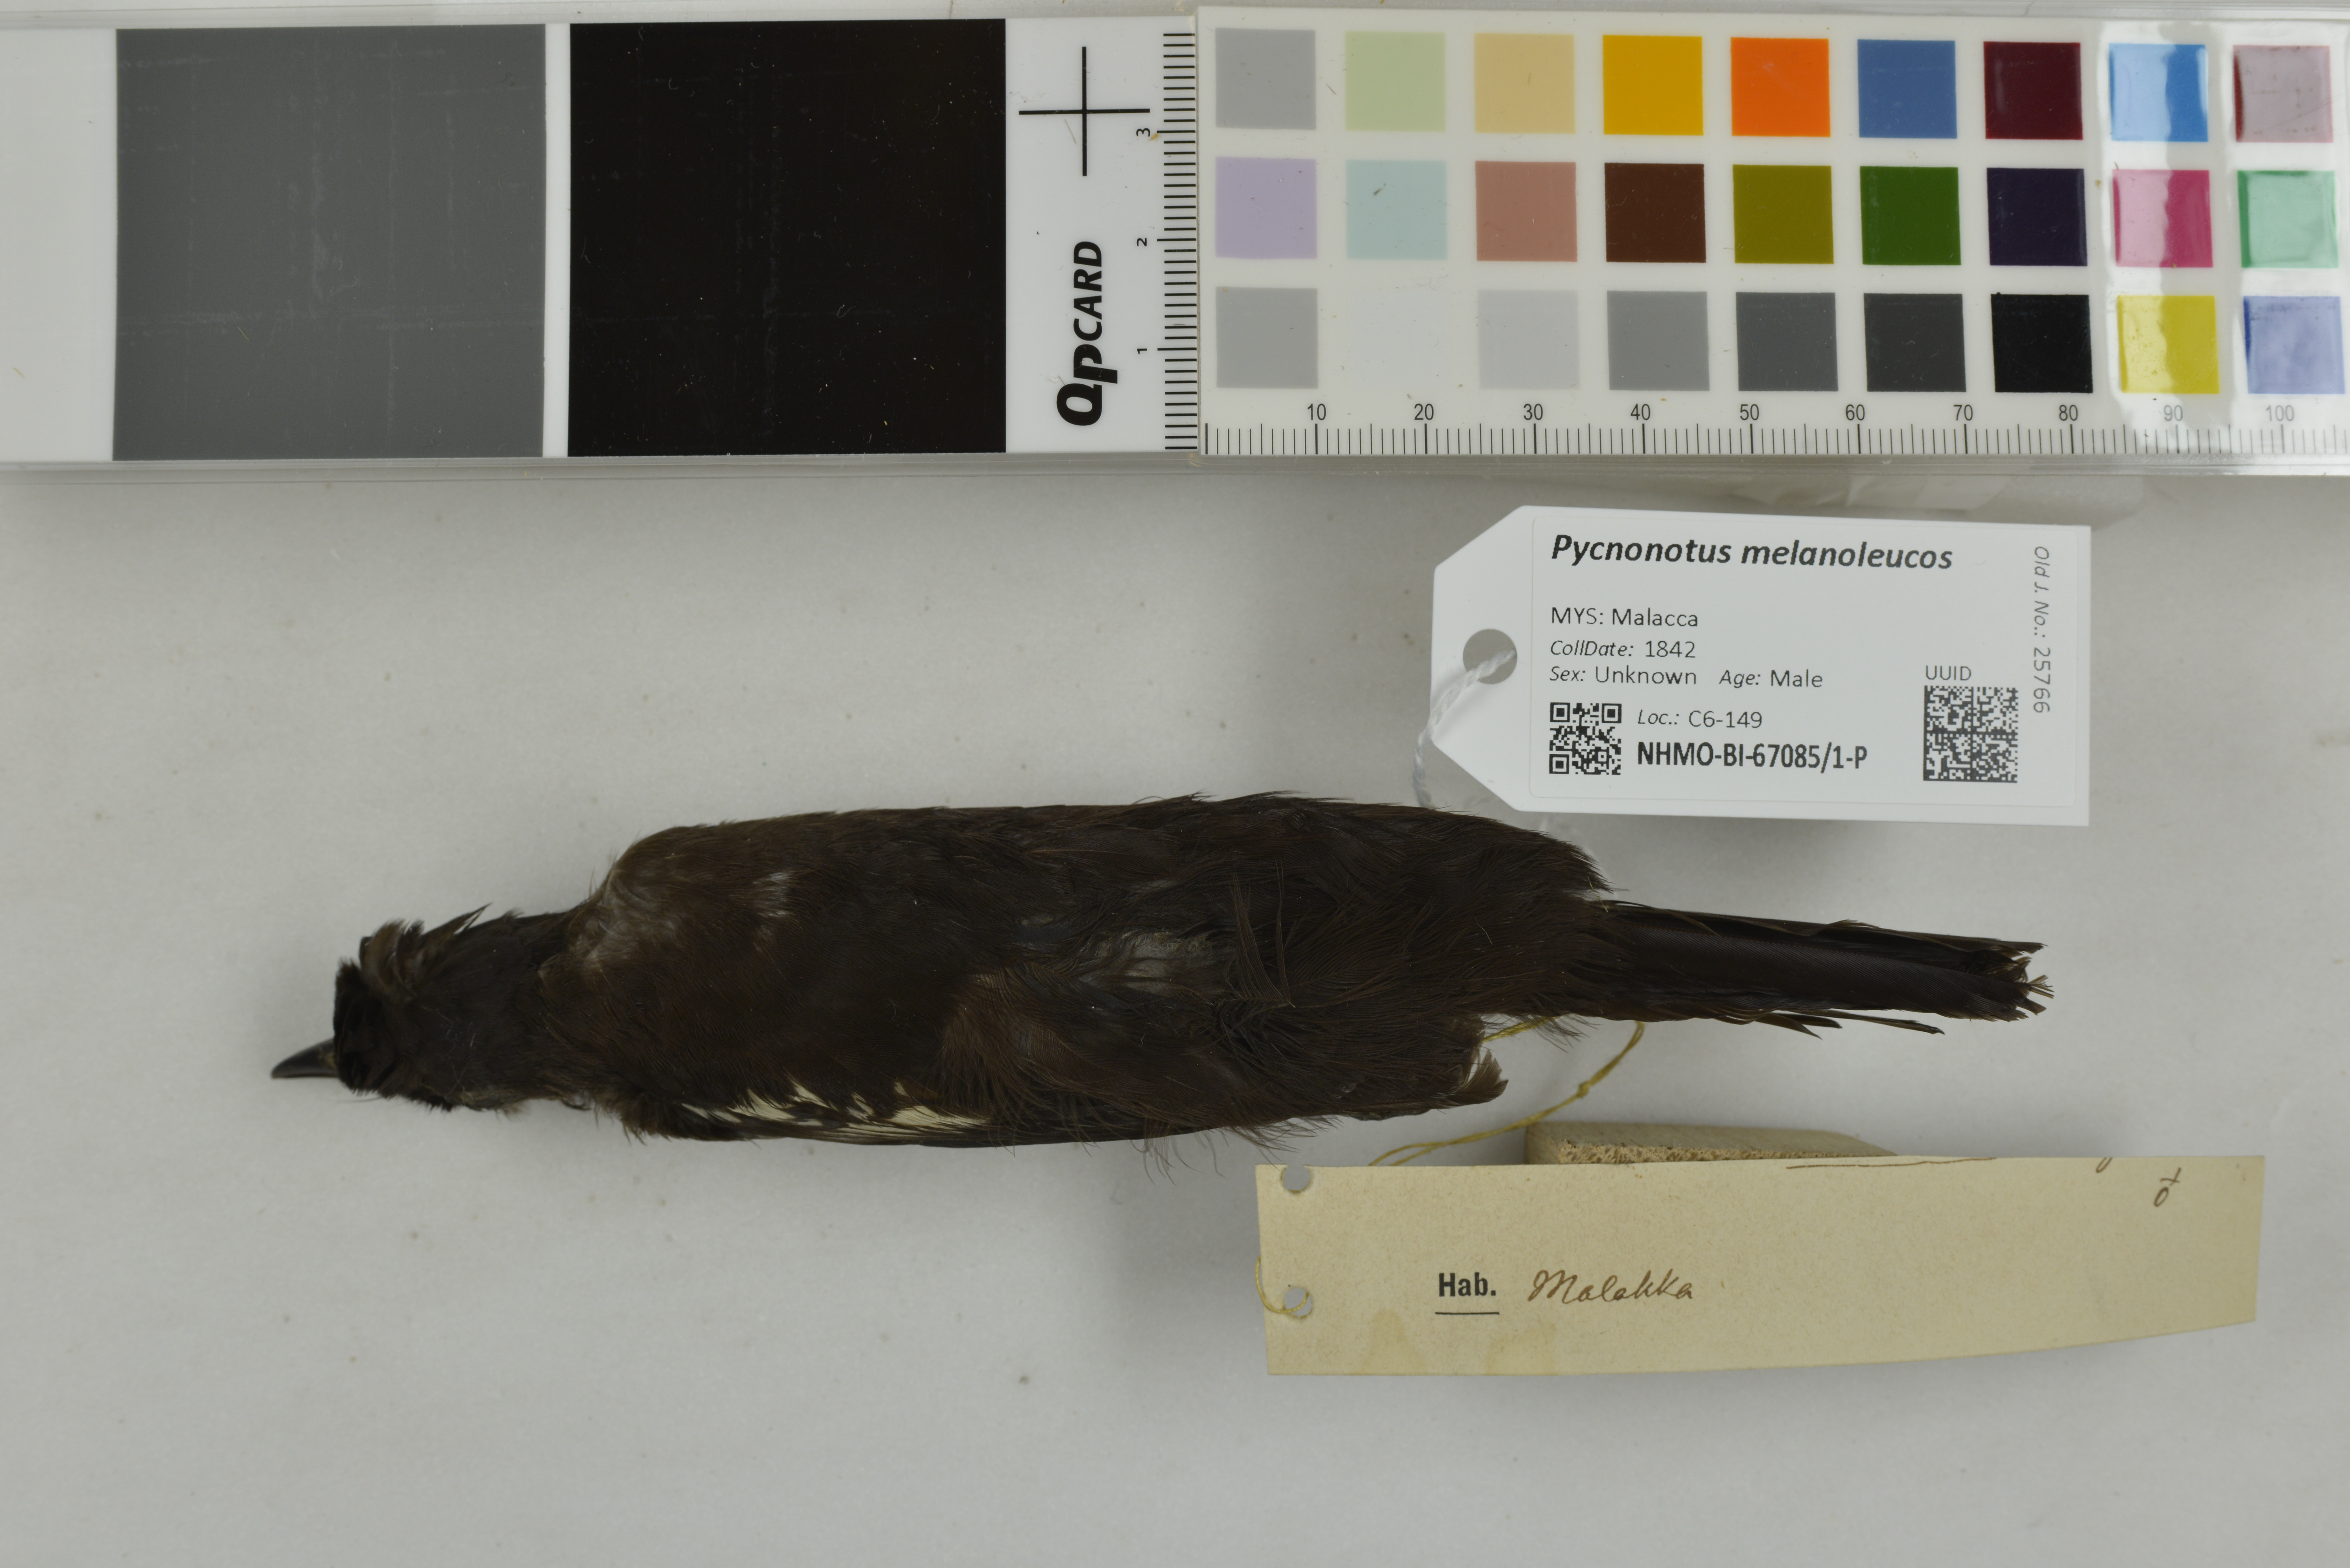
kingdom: Animalia
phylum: Chordata
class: Aves
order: Passeriformes
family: Pycnonotidae
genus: Pycnonotus
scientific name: Pycnonotus melanoleucos
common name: Black-and-white bulbul
